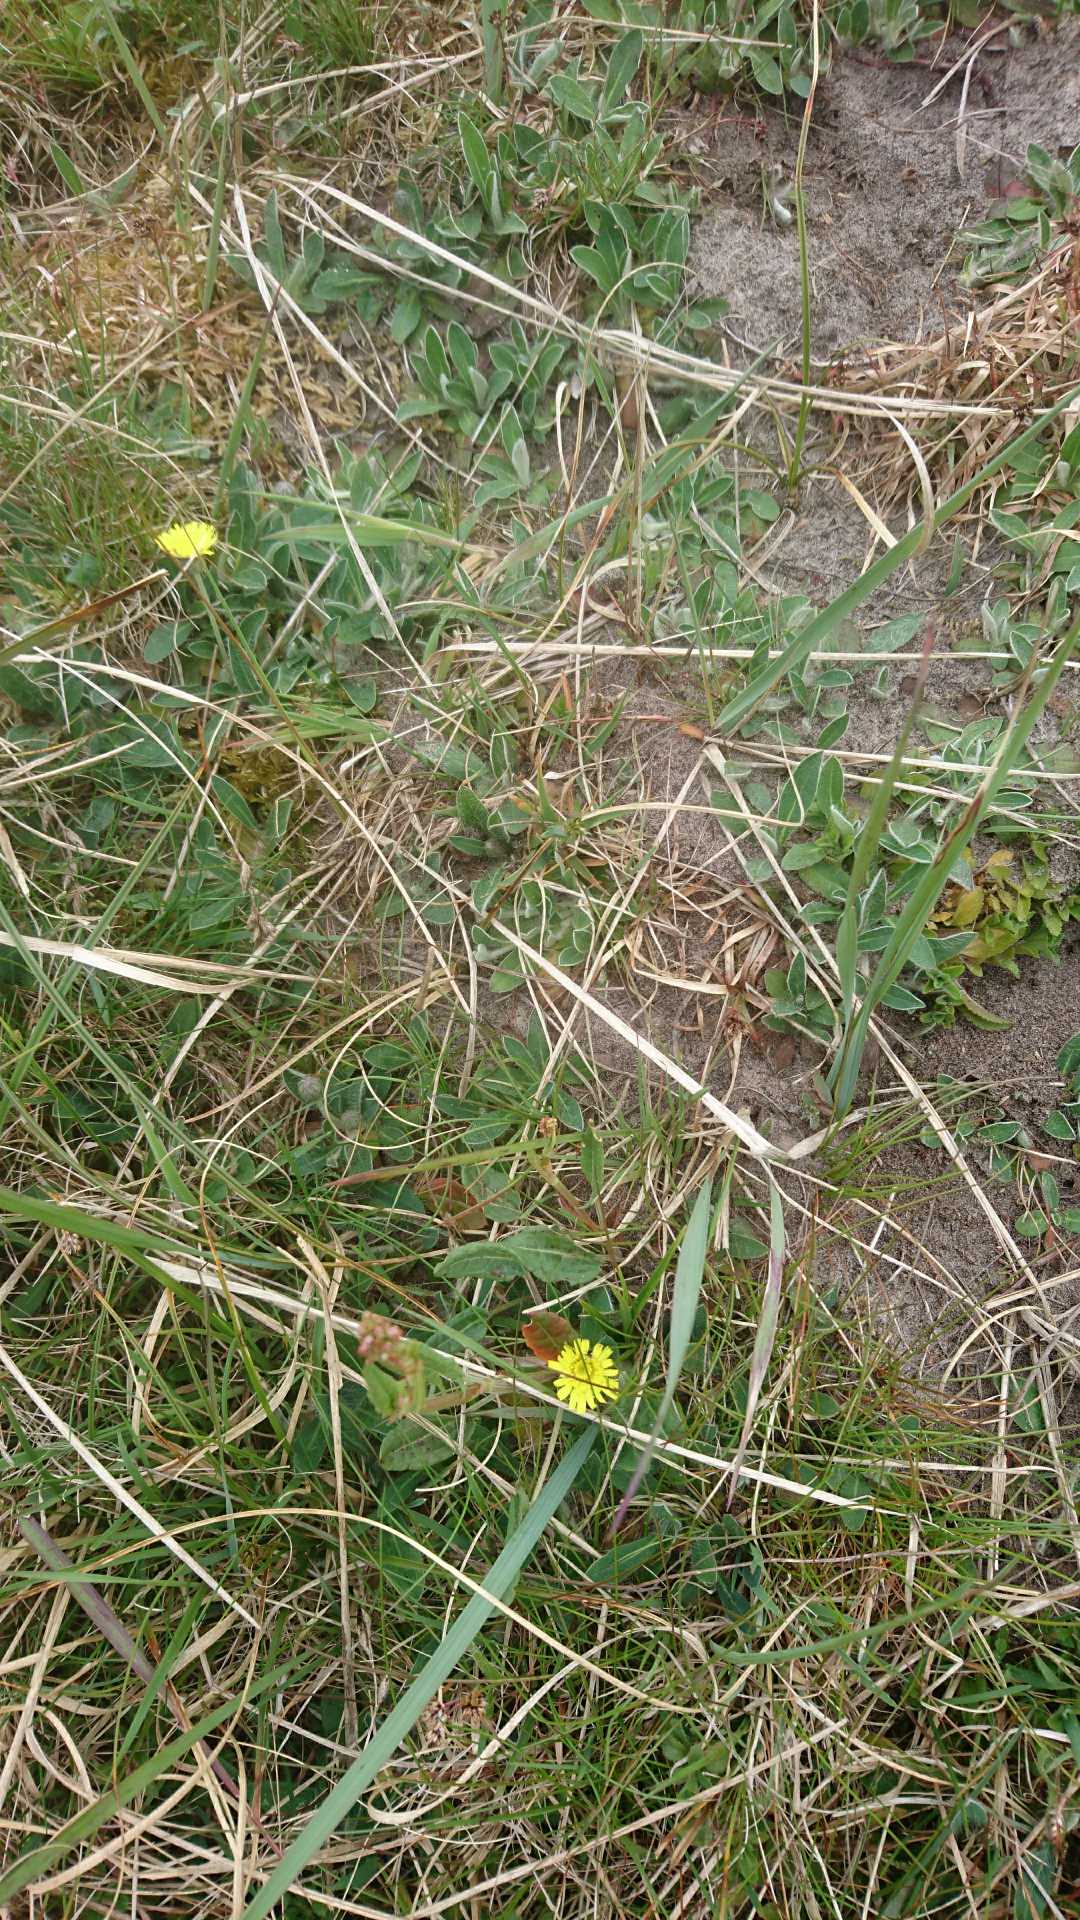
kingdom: Plantae
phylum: Tracheophyta
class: Magnoliopsida
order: Asterales
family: Asteraceae
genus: Pilosella
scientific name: Pilosella officinarum
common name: Håret høgeurt
